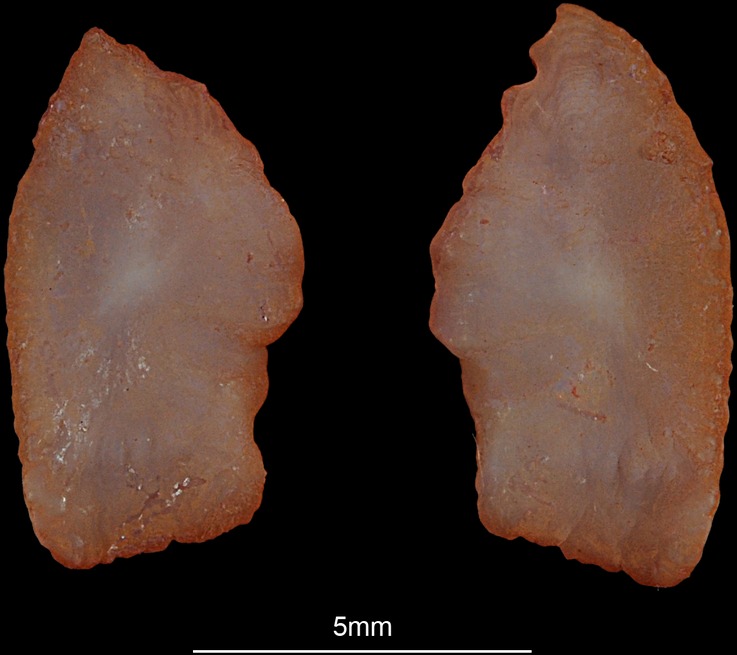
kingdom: Animalia
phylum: Chordata
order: Perciformes
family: Sparidae
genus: Rhabdosargus
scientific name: Rhabdosargus sarba
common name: Goldlined seabream
